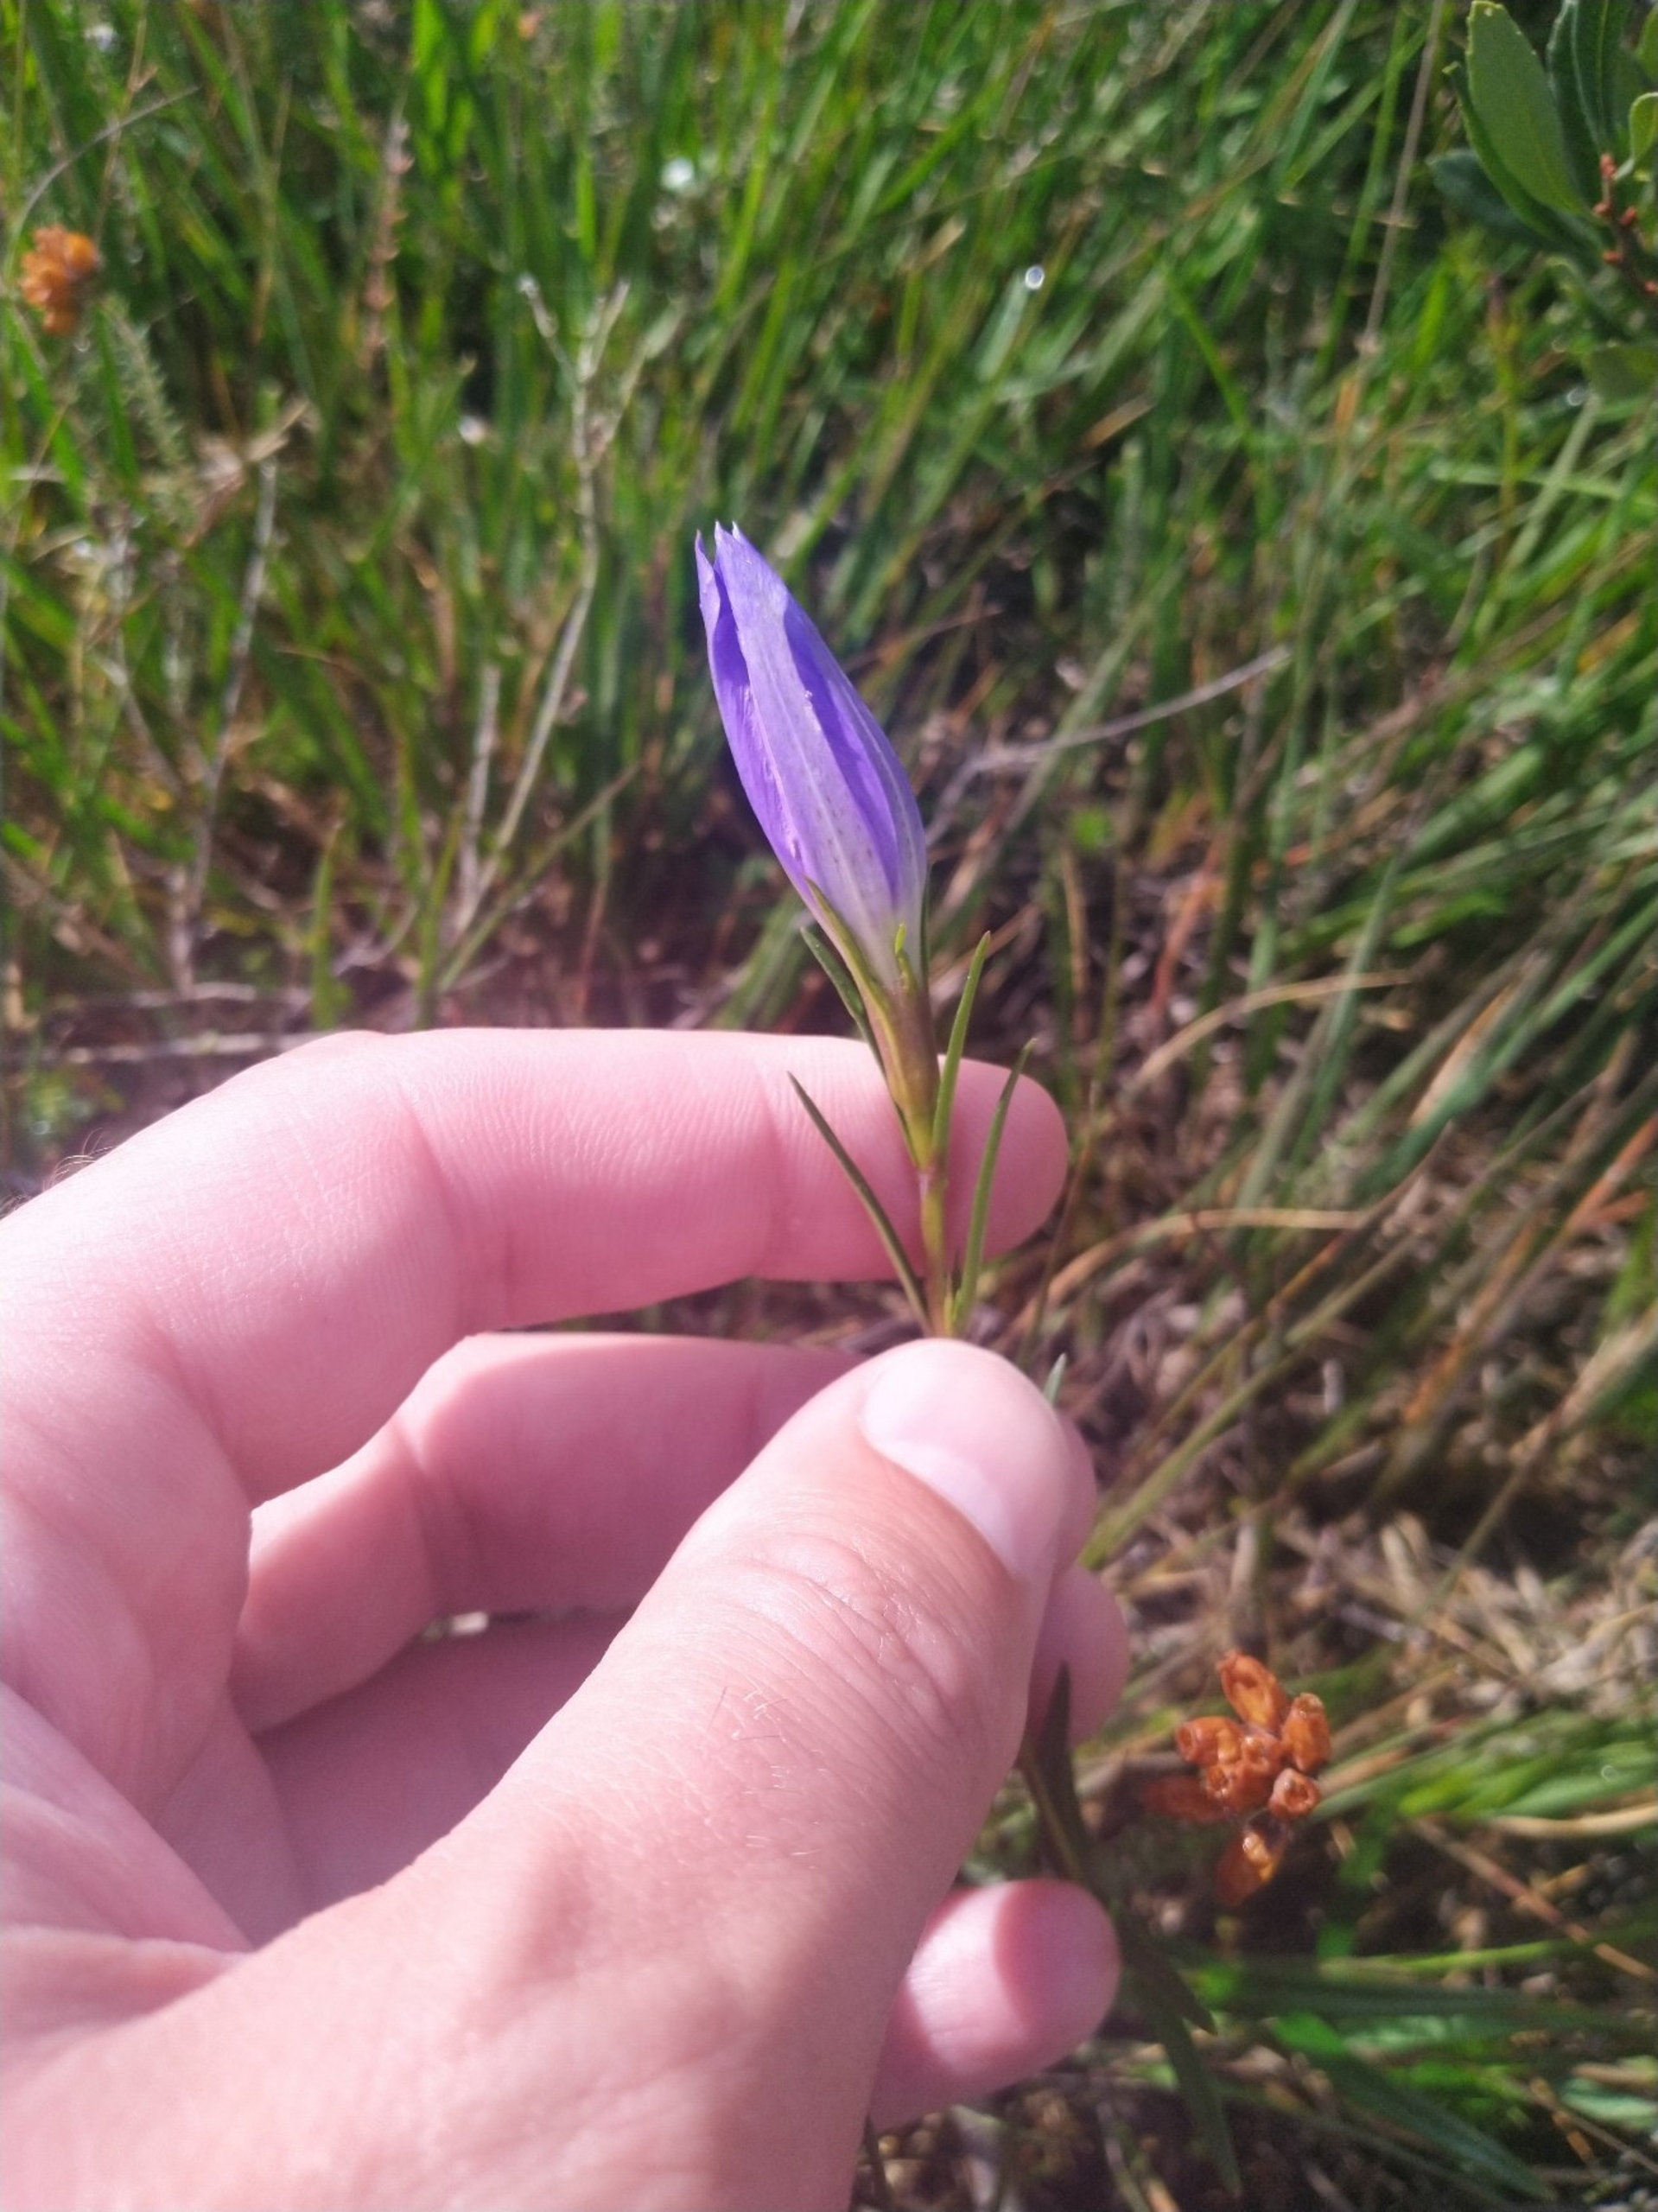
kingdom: Plantae
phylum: Tracheophyta
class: Magnoliopsida
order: Gentianales
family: Gentianaceae
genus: Gentiana
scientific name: Gentiana pneumonanthe
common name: Klokke-ensian
